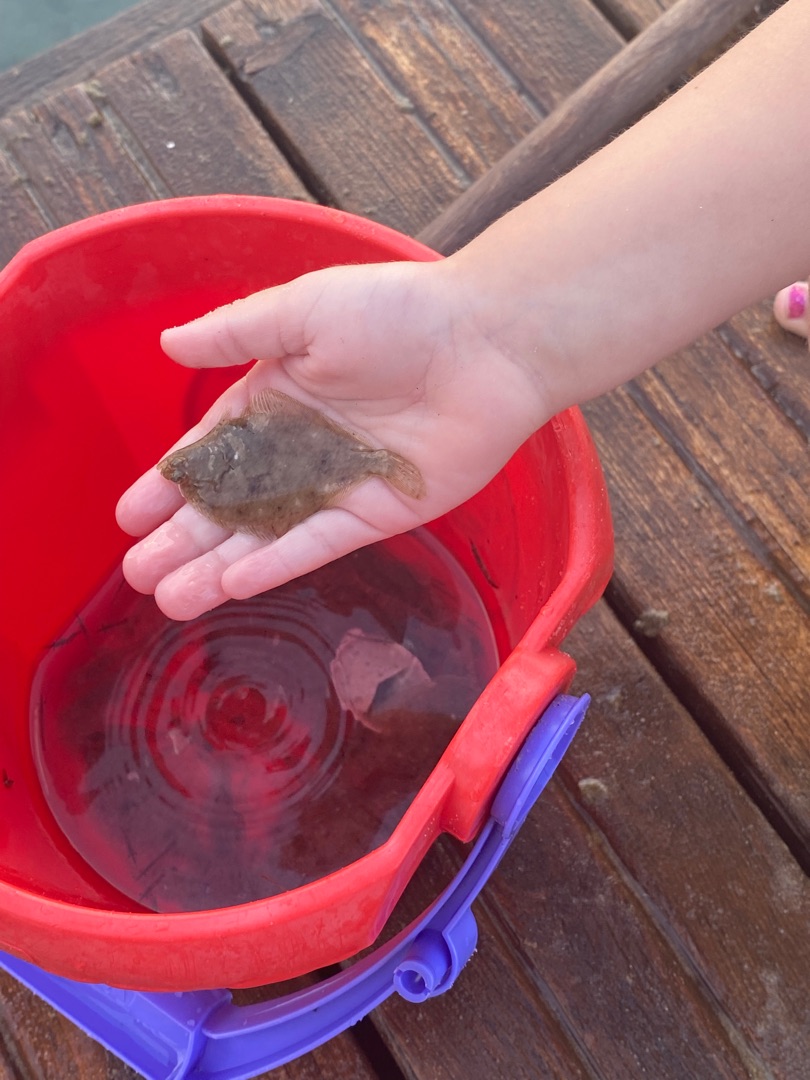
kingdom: Animalia
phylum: Chordata
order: Pleuronectiformes
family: Pleuronectidae
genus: Pleuronectes
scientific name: Pleuronectes platessa
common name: Rødspætte
